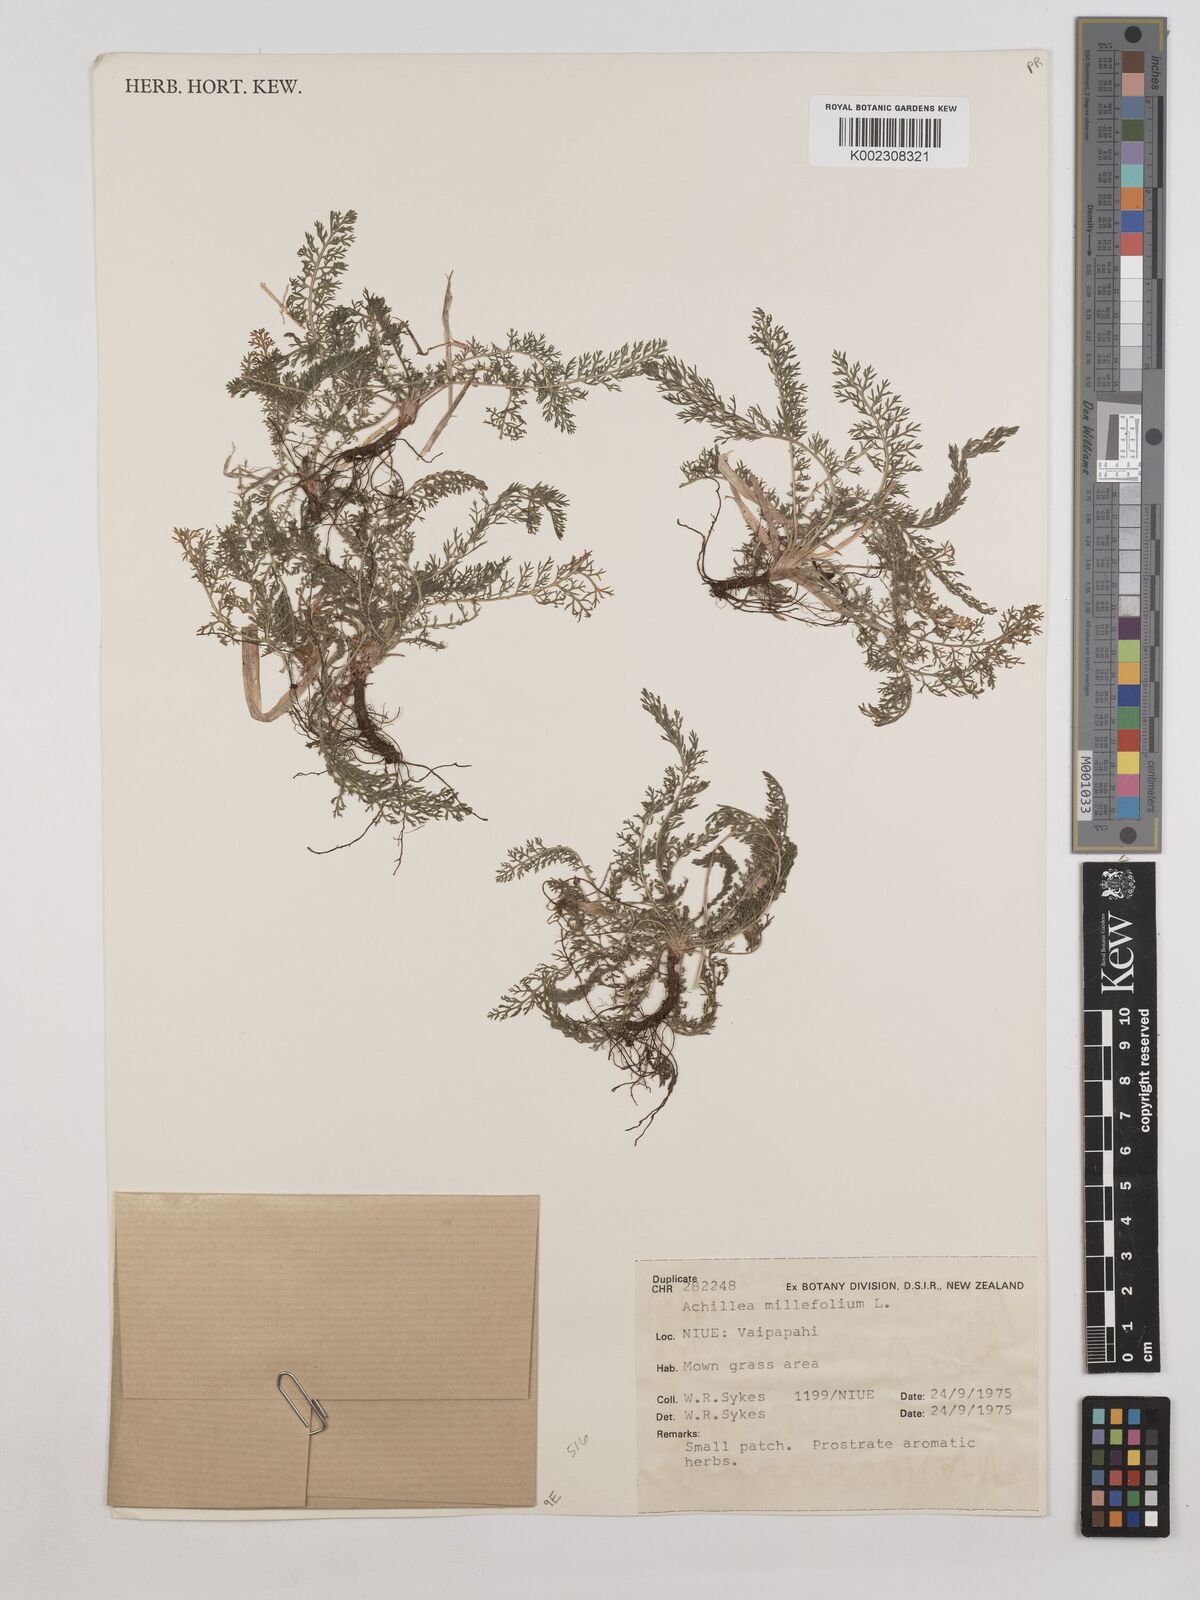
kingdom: Plantae
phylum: Tracheophyta
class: Magnoliopsida
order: Asterales
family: Asteraceae
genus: Achillea
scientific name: Achillea millefolium
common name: Yarrow
